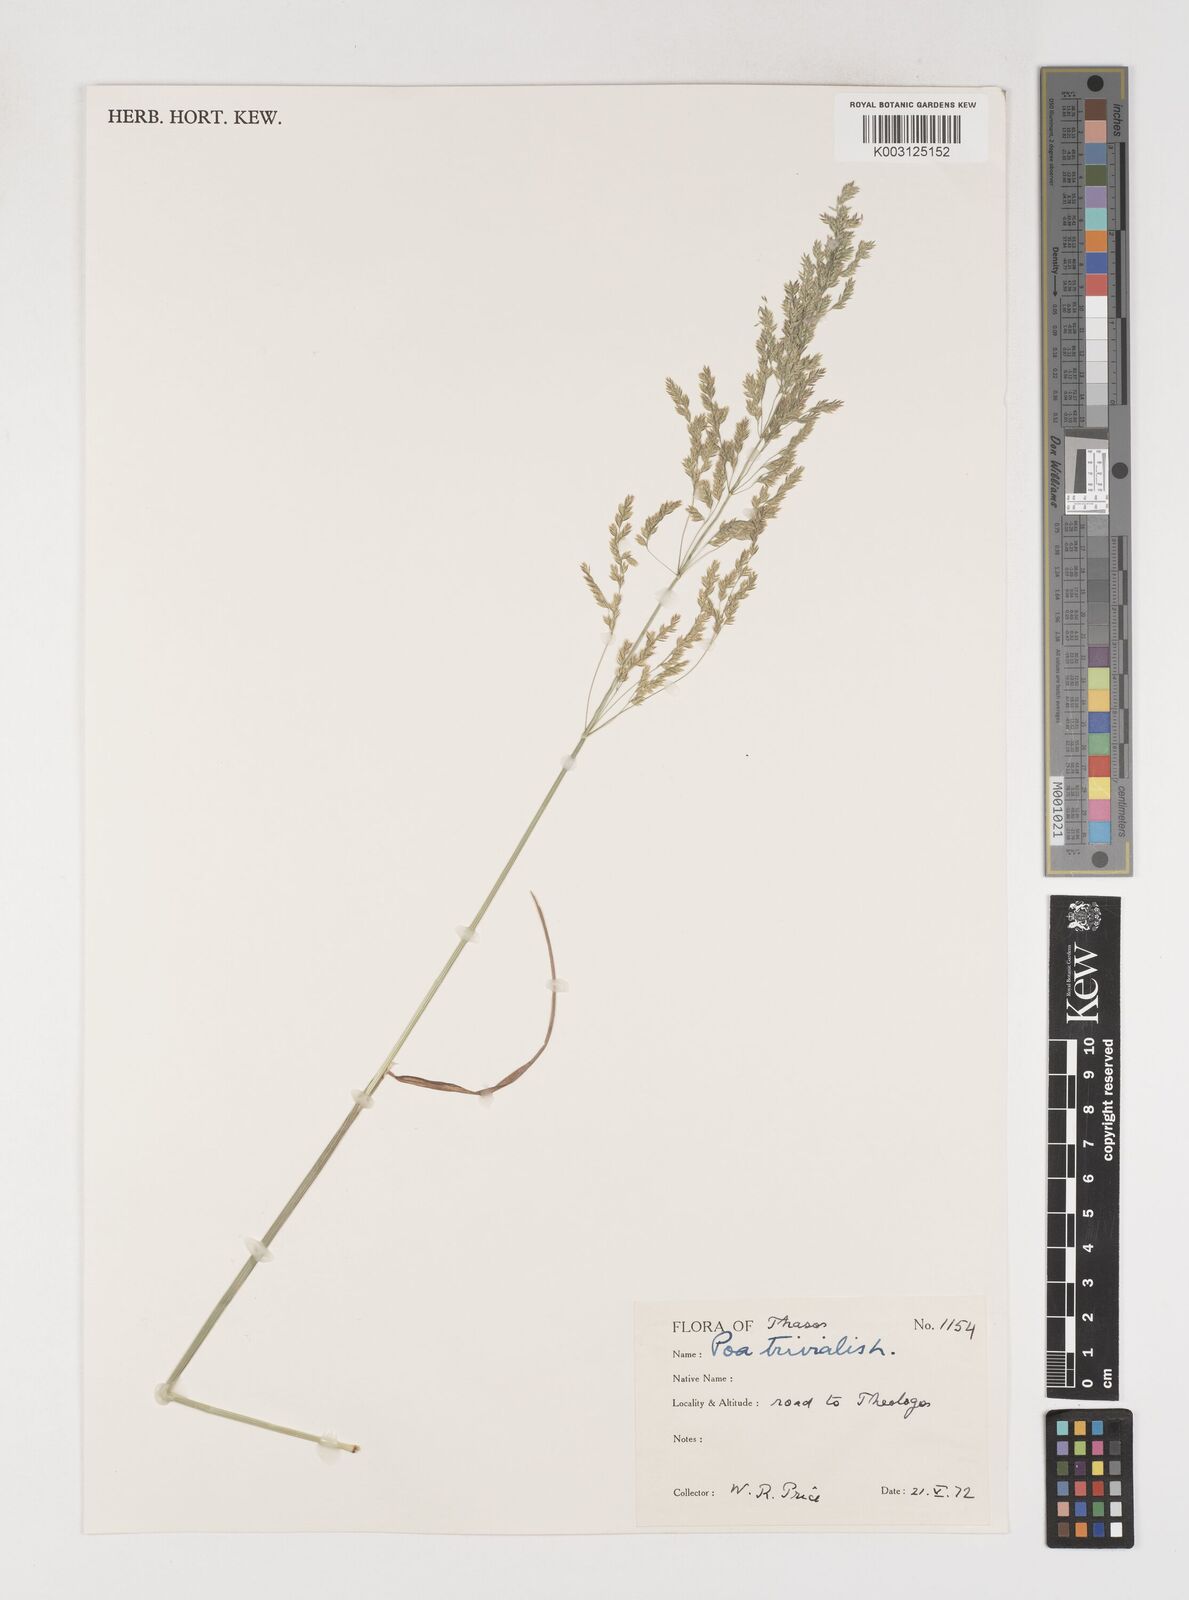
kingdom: Plantae
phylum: Tracheophyta
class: Liliopsida
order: Poales
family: Poaceae
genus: Poa
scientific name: Poa trivialis
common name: Rough bluegrass
